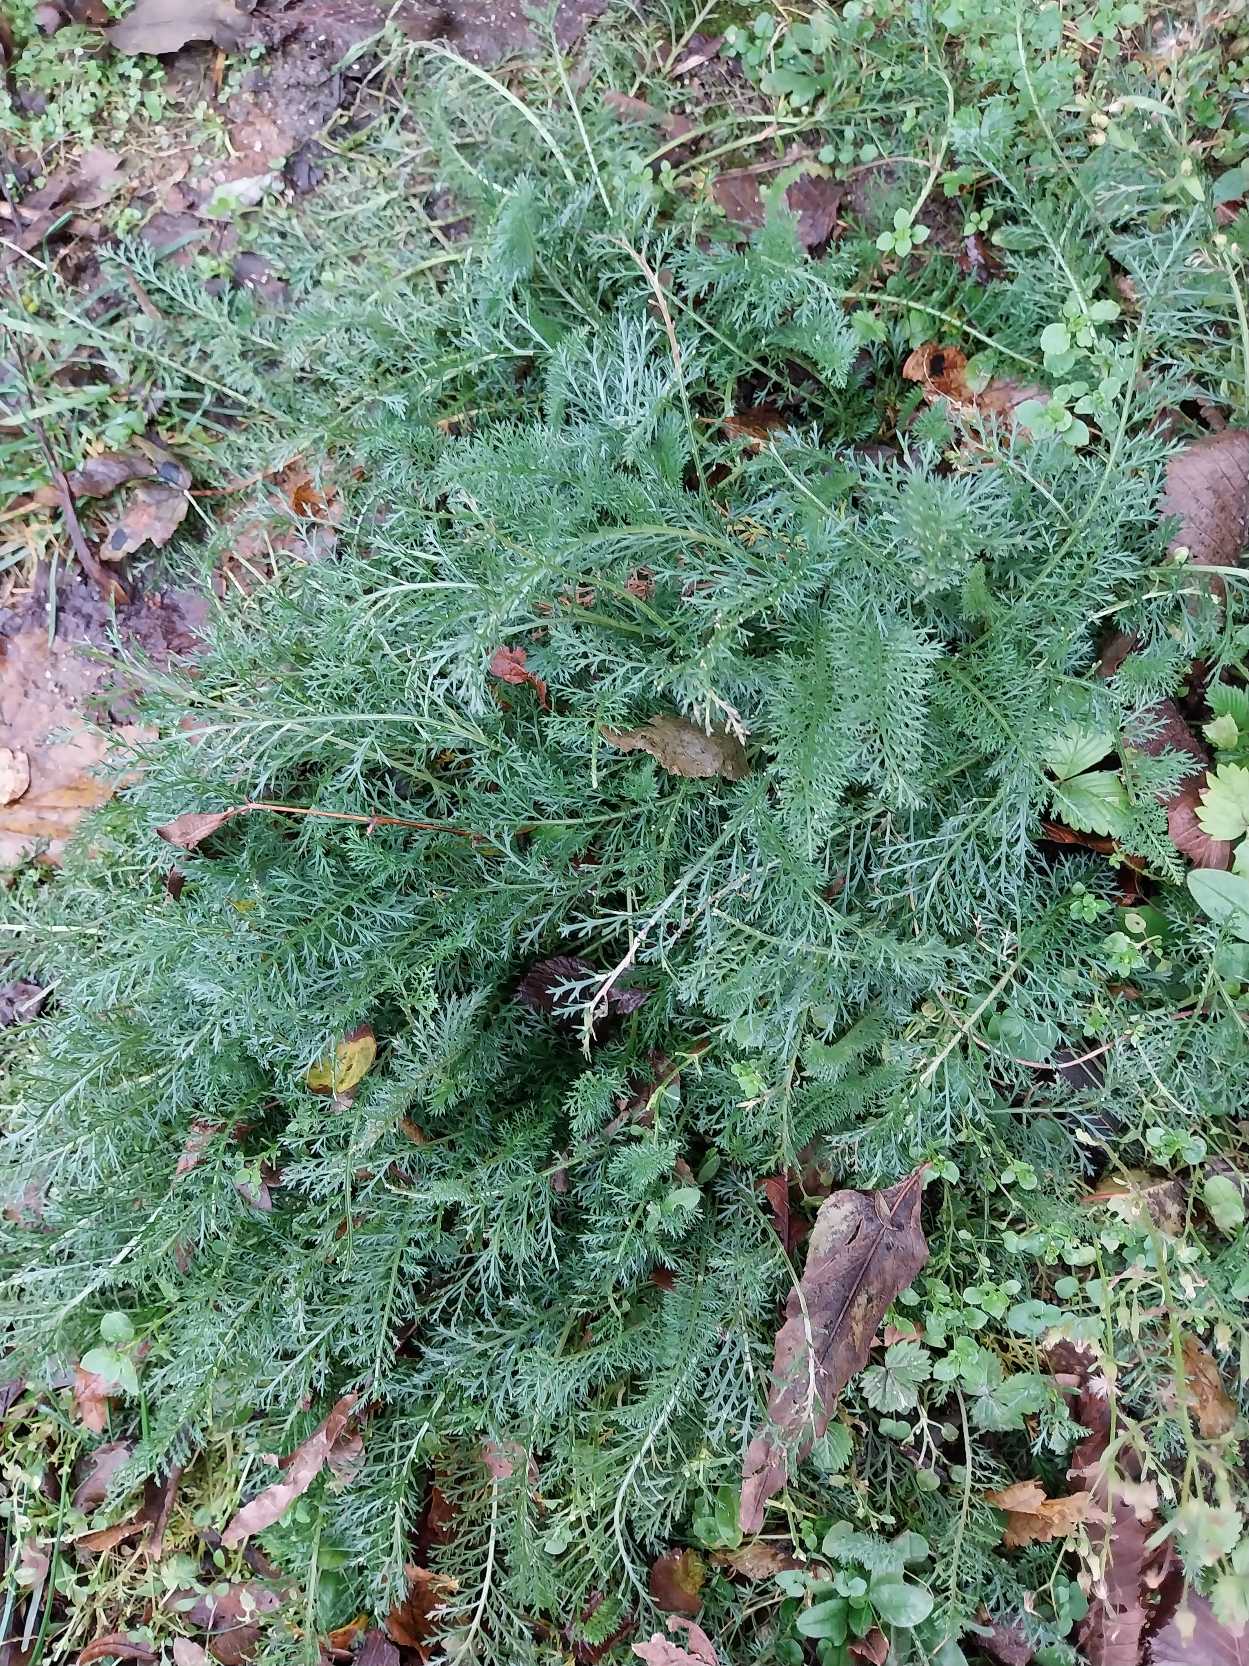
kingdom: Plantae
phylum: Tracheophyta
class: Magnoliopsida
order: Asterales
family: Asteraceae
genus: Achillea
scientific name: Achillea millefolium
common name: Almindelig røllike
